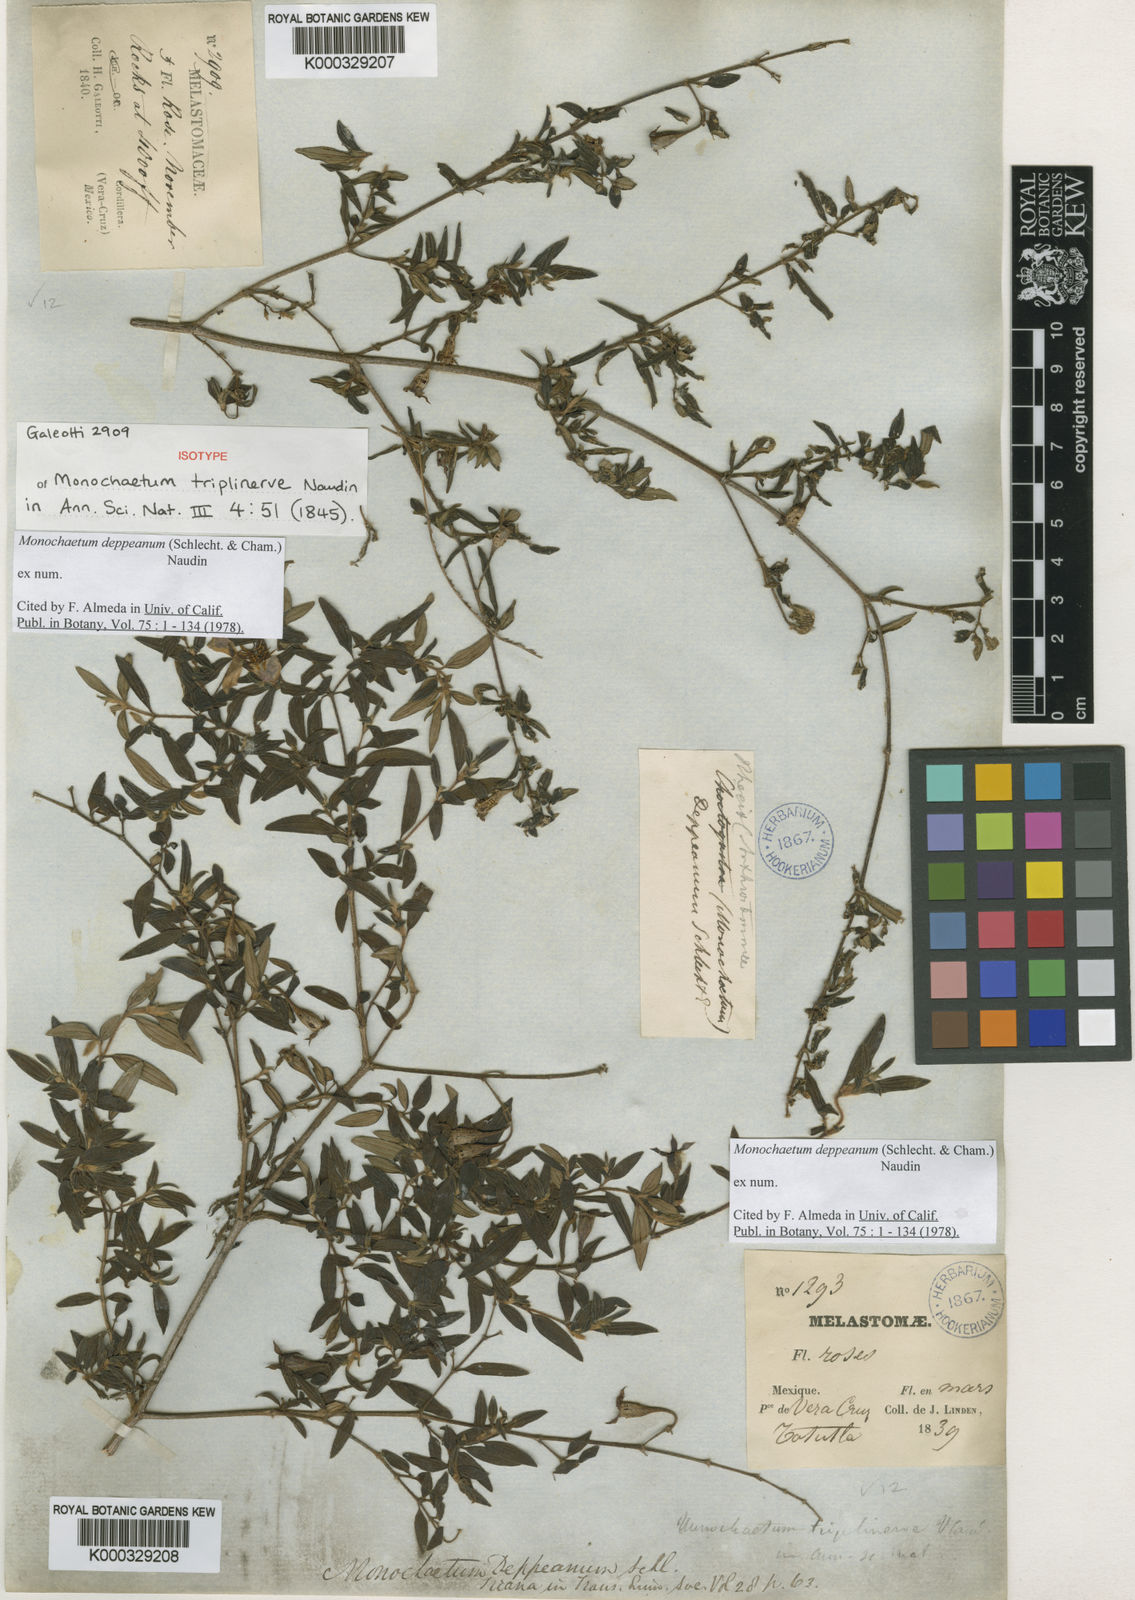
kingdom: Plantae
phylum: Tracheophyta
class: Magnoliopsida
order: Myrtales
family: Melastomataceae
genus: Monochaetum
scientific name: Monochaetum deppeanum
